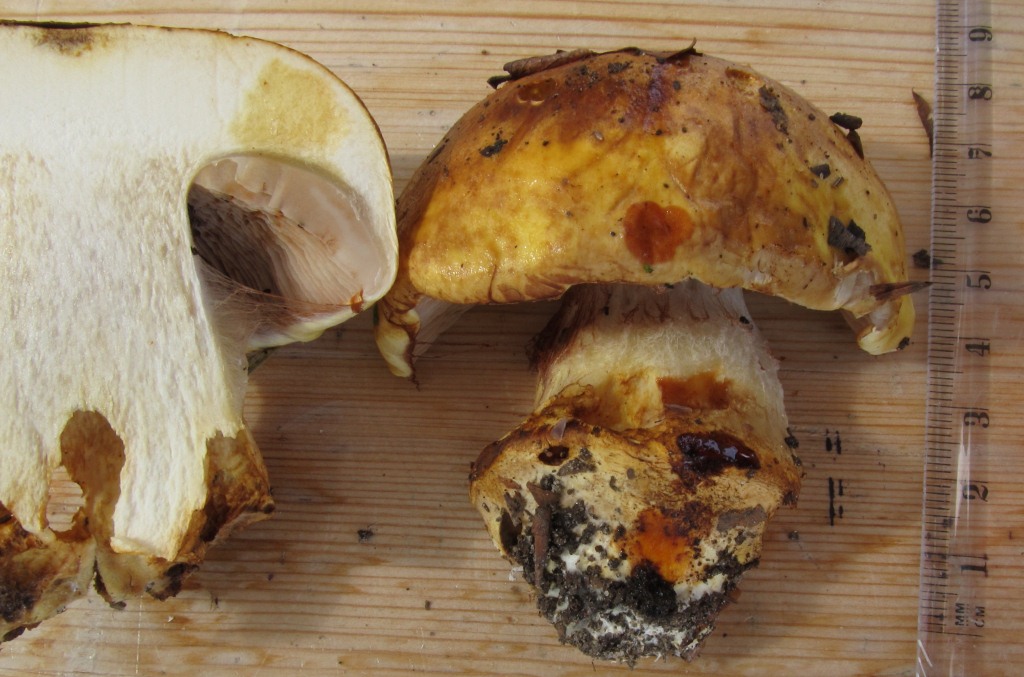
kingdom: Fungi
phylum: Basidiomycota
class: Agaricomycetes
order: Agaricales
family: Cortinariaceae
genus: Phlegmacium
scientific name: Phlegmacium caesiocortinatum
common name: rundsporet slørhat
